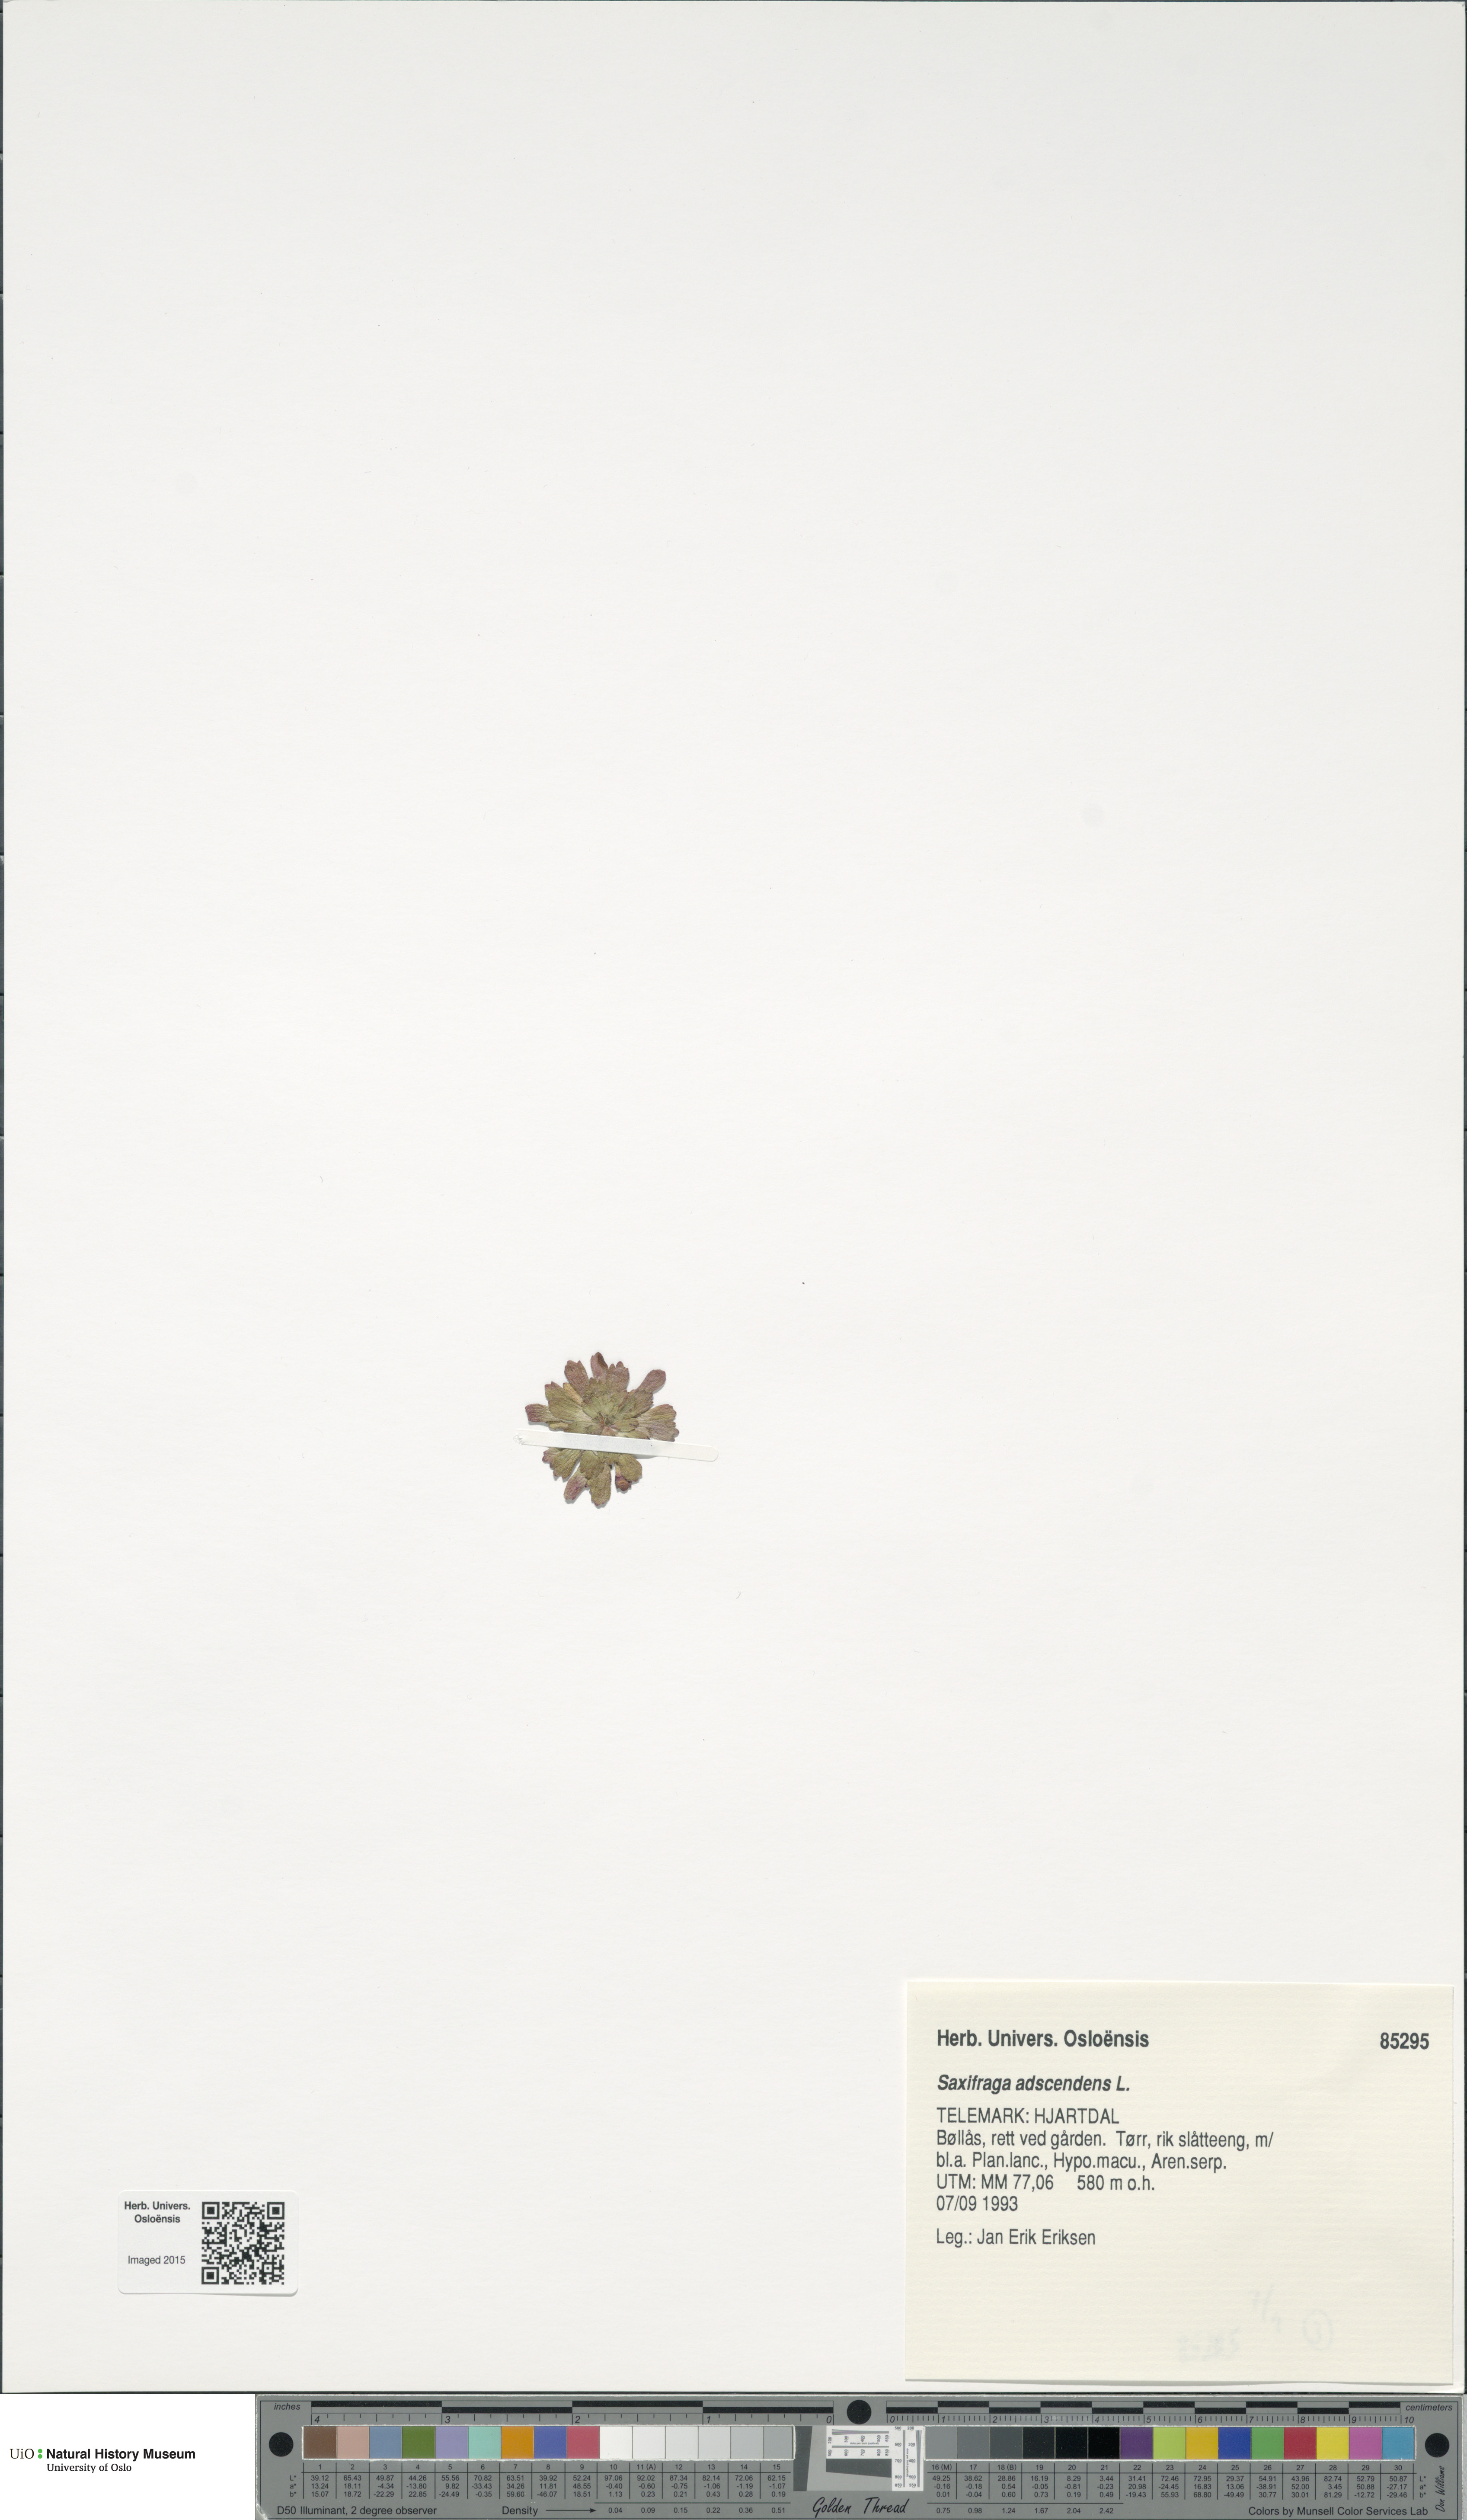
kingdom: Plantae
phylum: Tracheophyta
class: Magnoliopsida
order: Saxifragales
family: Saxifragaceae
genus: Saxifraga
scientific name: Saxifraga adscendens
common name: Ascending saxifrage
